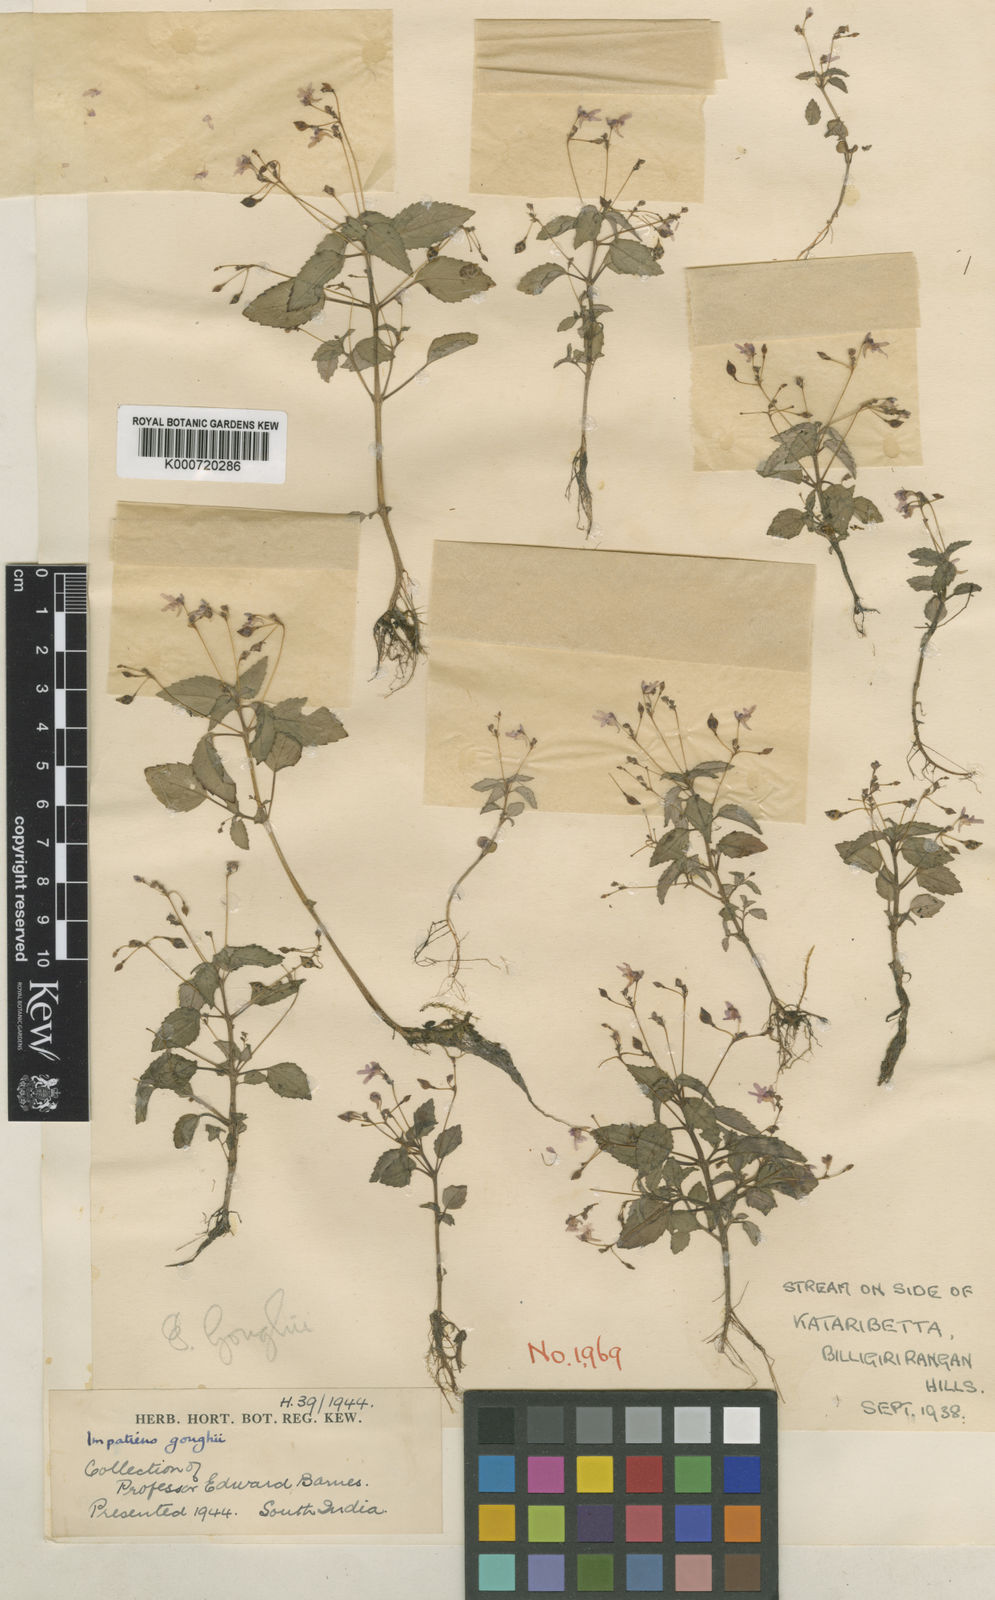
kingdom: Plantae
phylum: Tracheophyta
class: Magnoliopsida
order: Ericales
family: Balsaminaceae
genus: Impatiens
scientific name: Impatiens goughii
